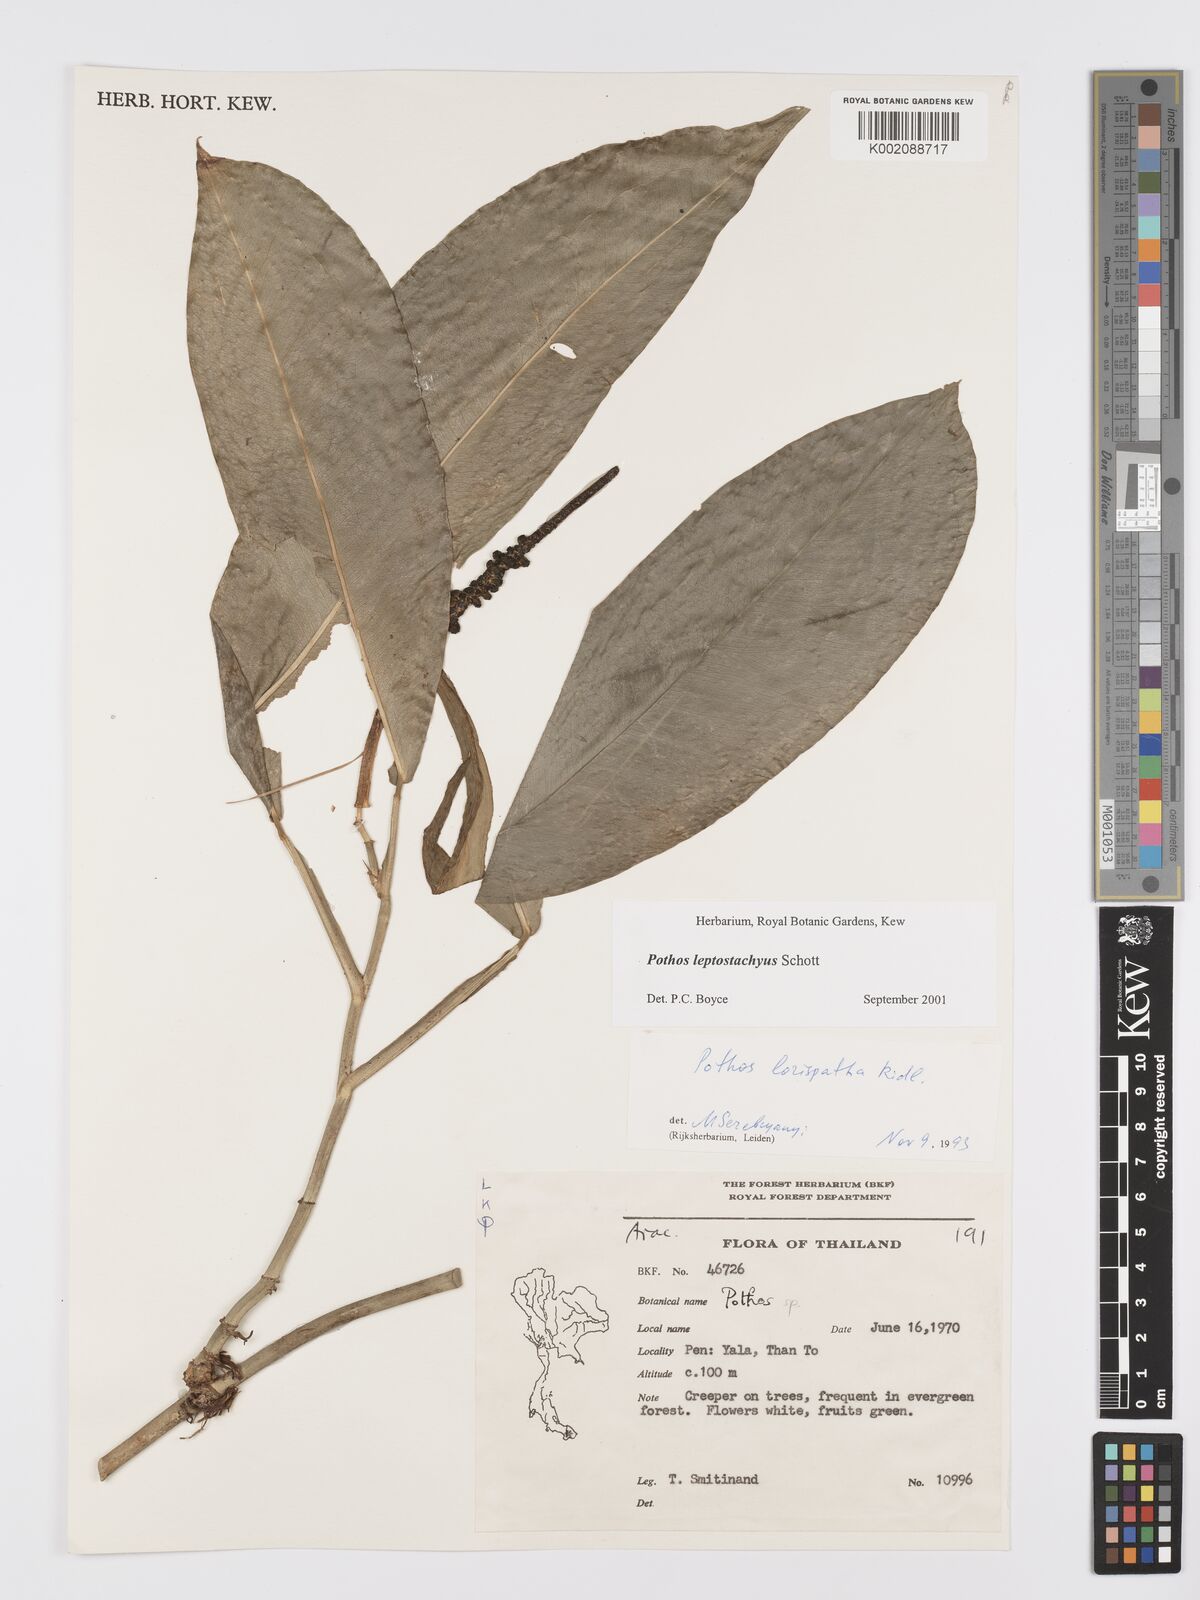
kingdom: Plantae
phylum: Tracheophyta
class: Liliopsida
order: Alismatales
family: Araceae
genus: Pothos
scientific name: Pothos leptostachyus
